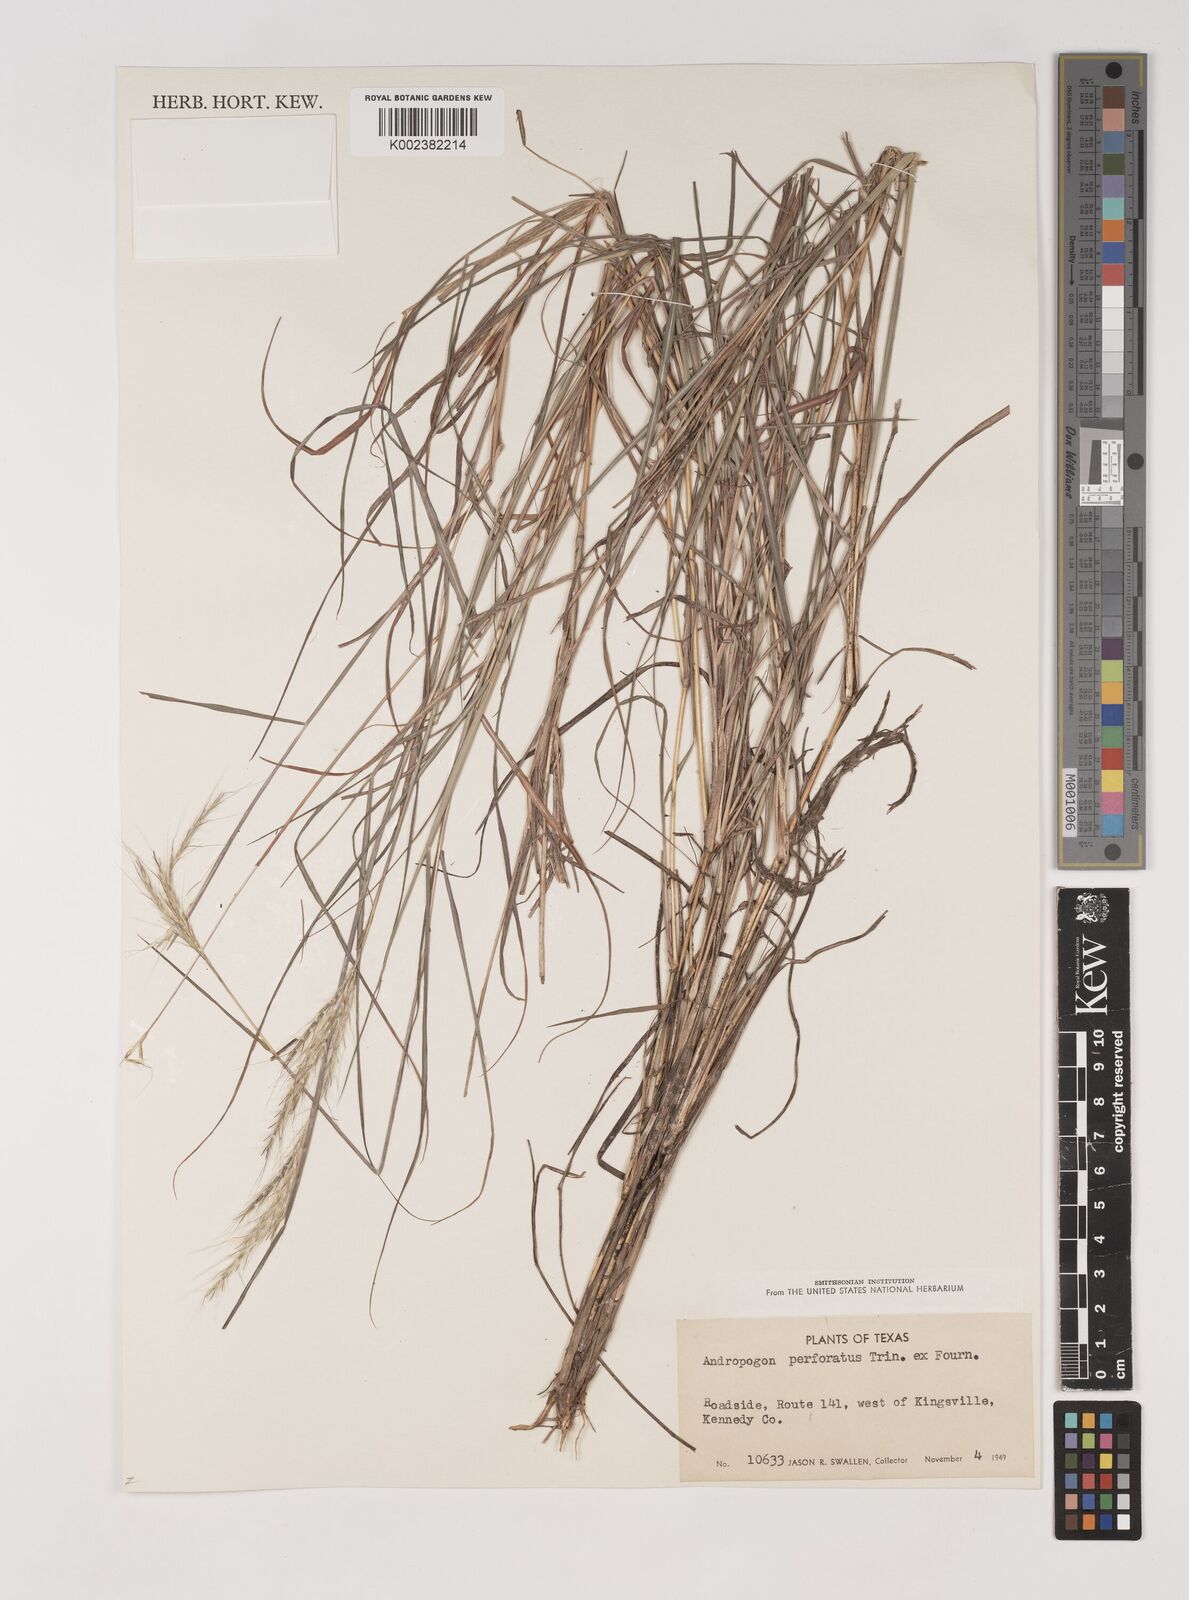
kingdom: Plantae
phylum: Tracheophyta
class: Liliopsida
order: Poales
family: Poaceae
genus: Bothriochloa
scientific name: Bothriochloa ischaemum
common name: Yellow bluestem
